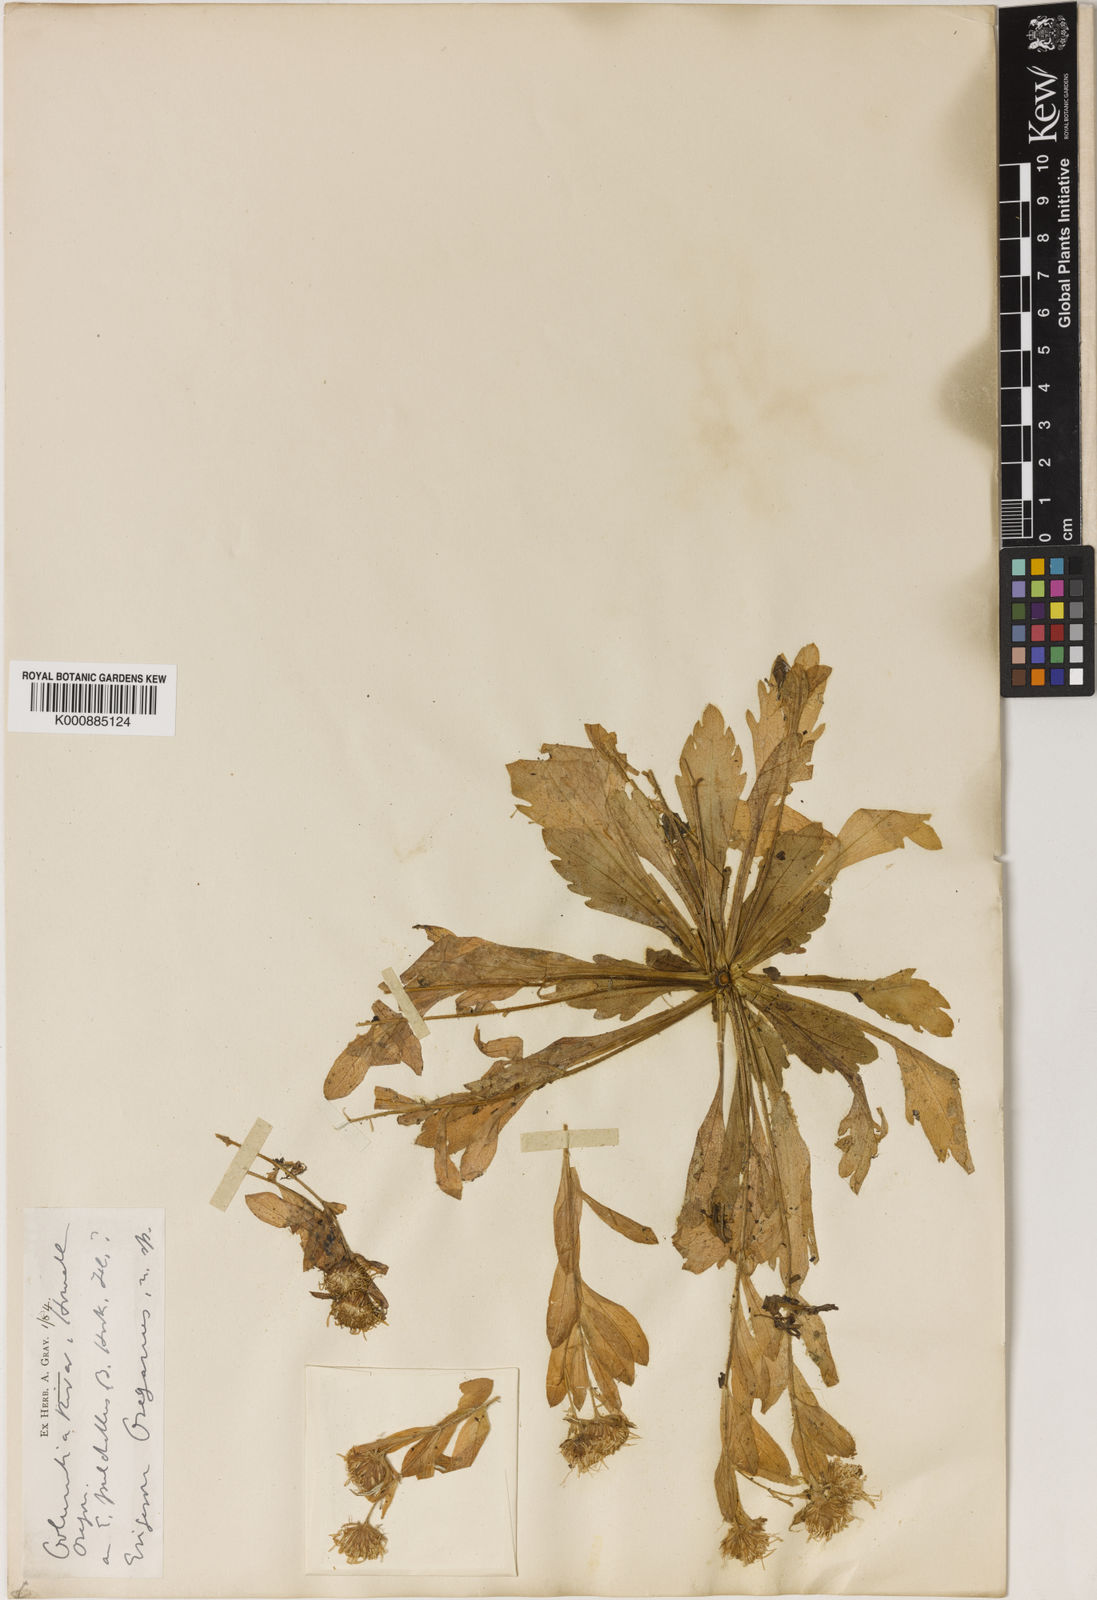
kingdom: Plantae
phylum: Tracheophyta
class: Magnoliopsida
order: Asterales
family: Asteraceae
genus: Erigeron
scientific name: Erigeron
